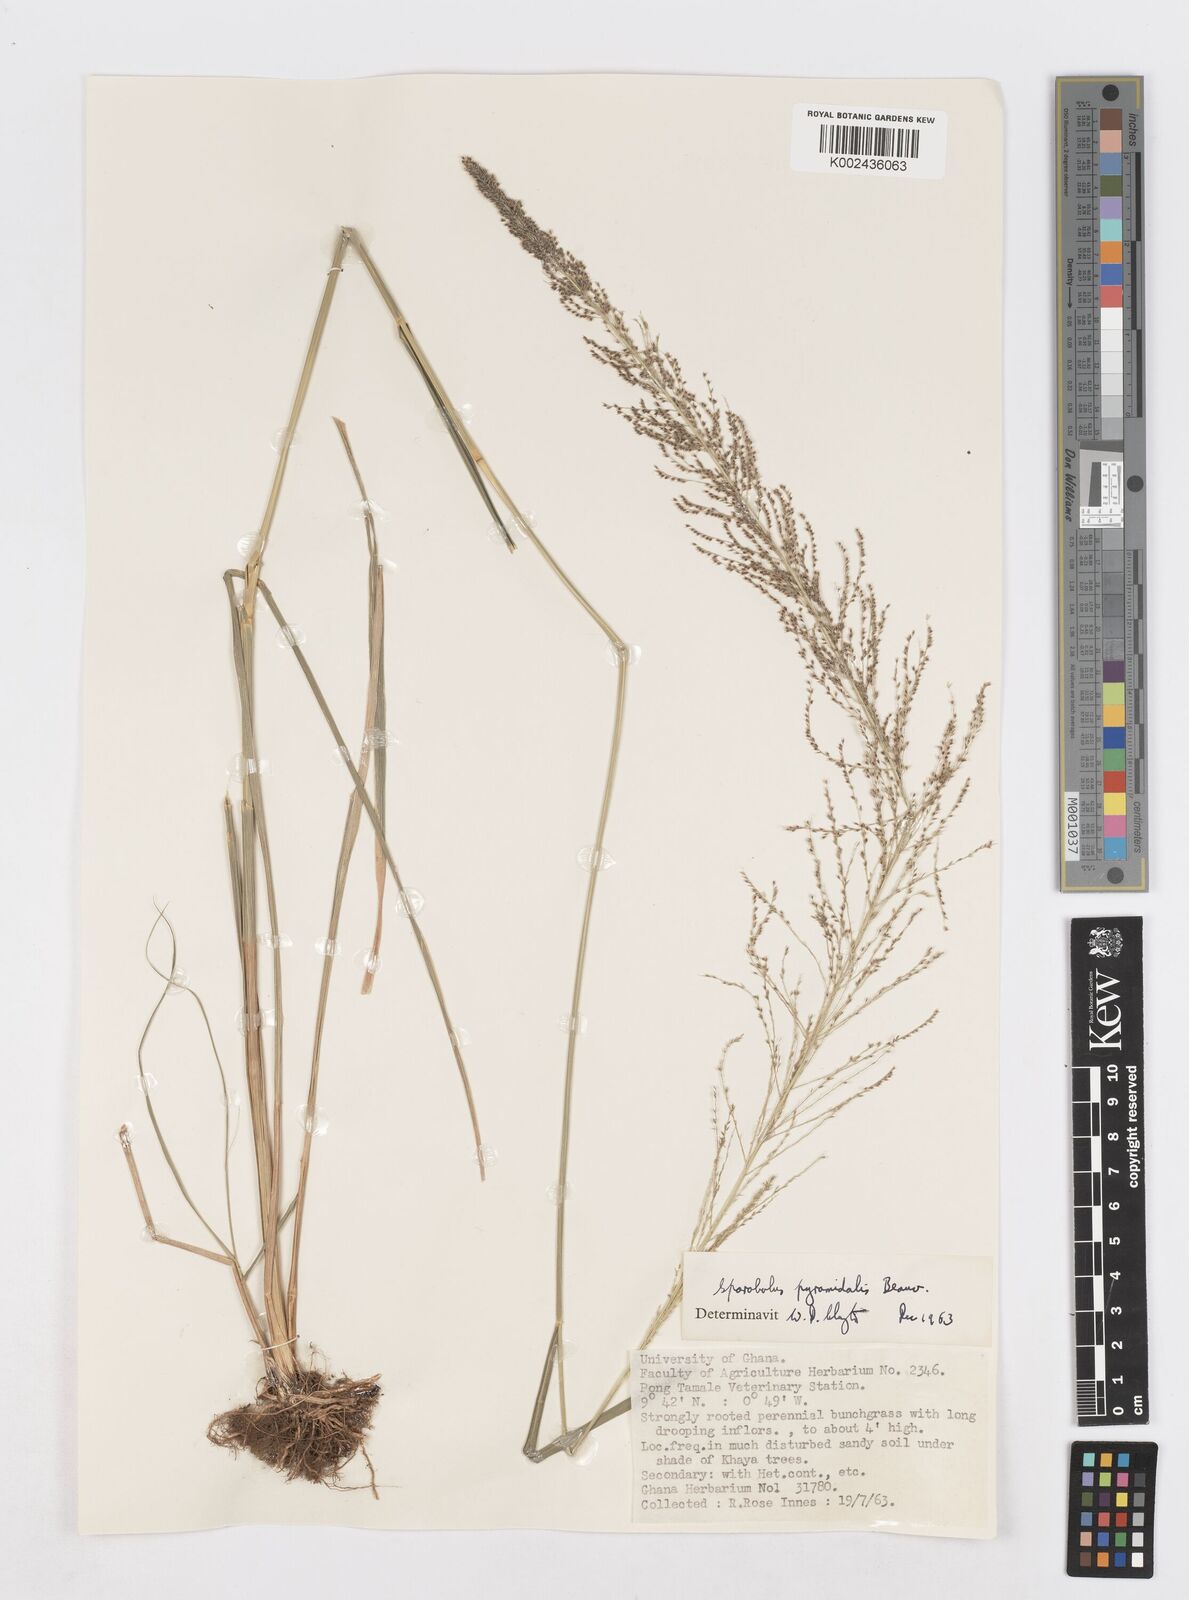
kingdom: Plantae
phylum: Tracheophyta
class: Liliopsida
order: Poales
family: Poaceae
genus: Sporobolus
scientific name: Sporobolus pyramidalis
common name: West indian dropseed
